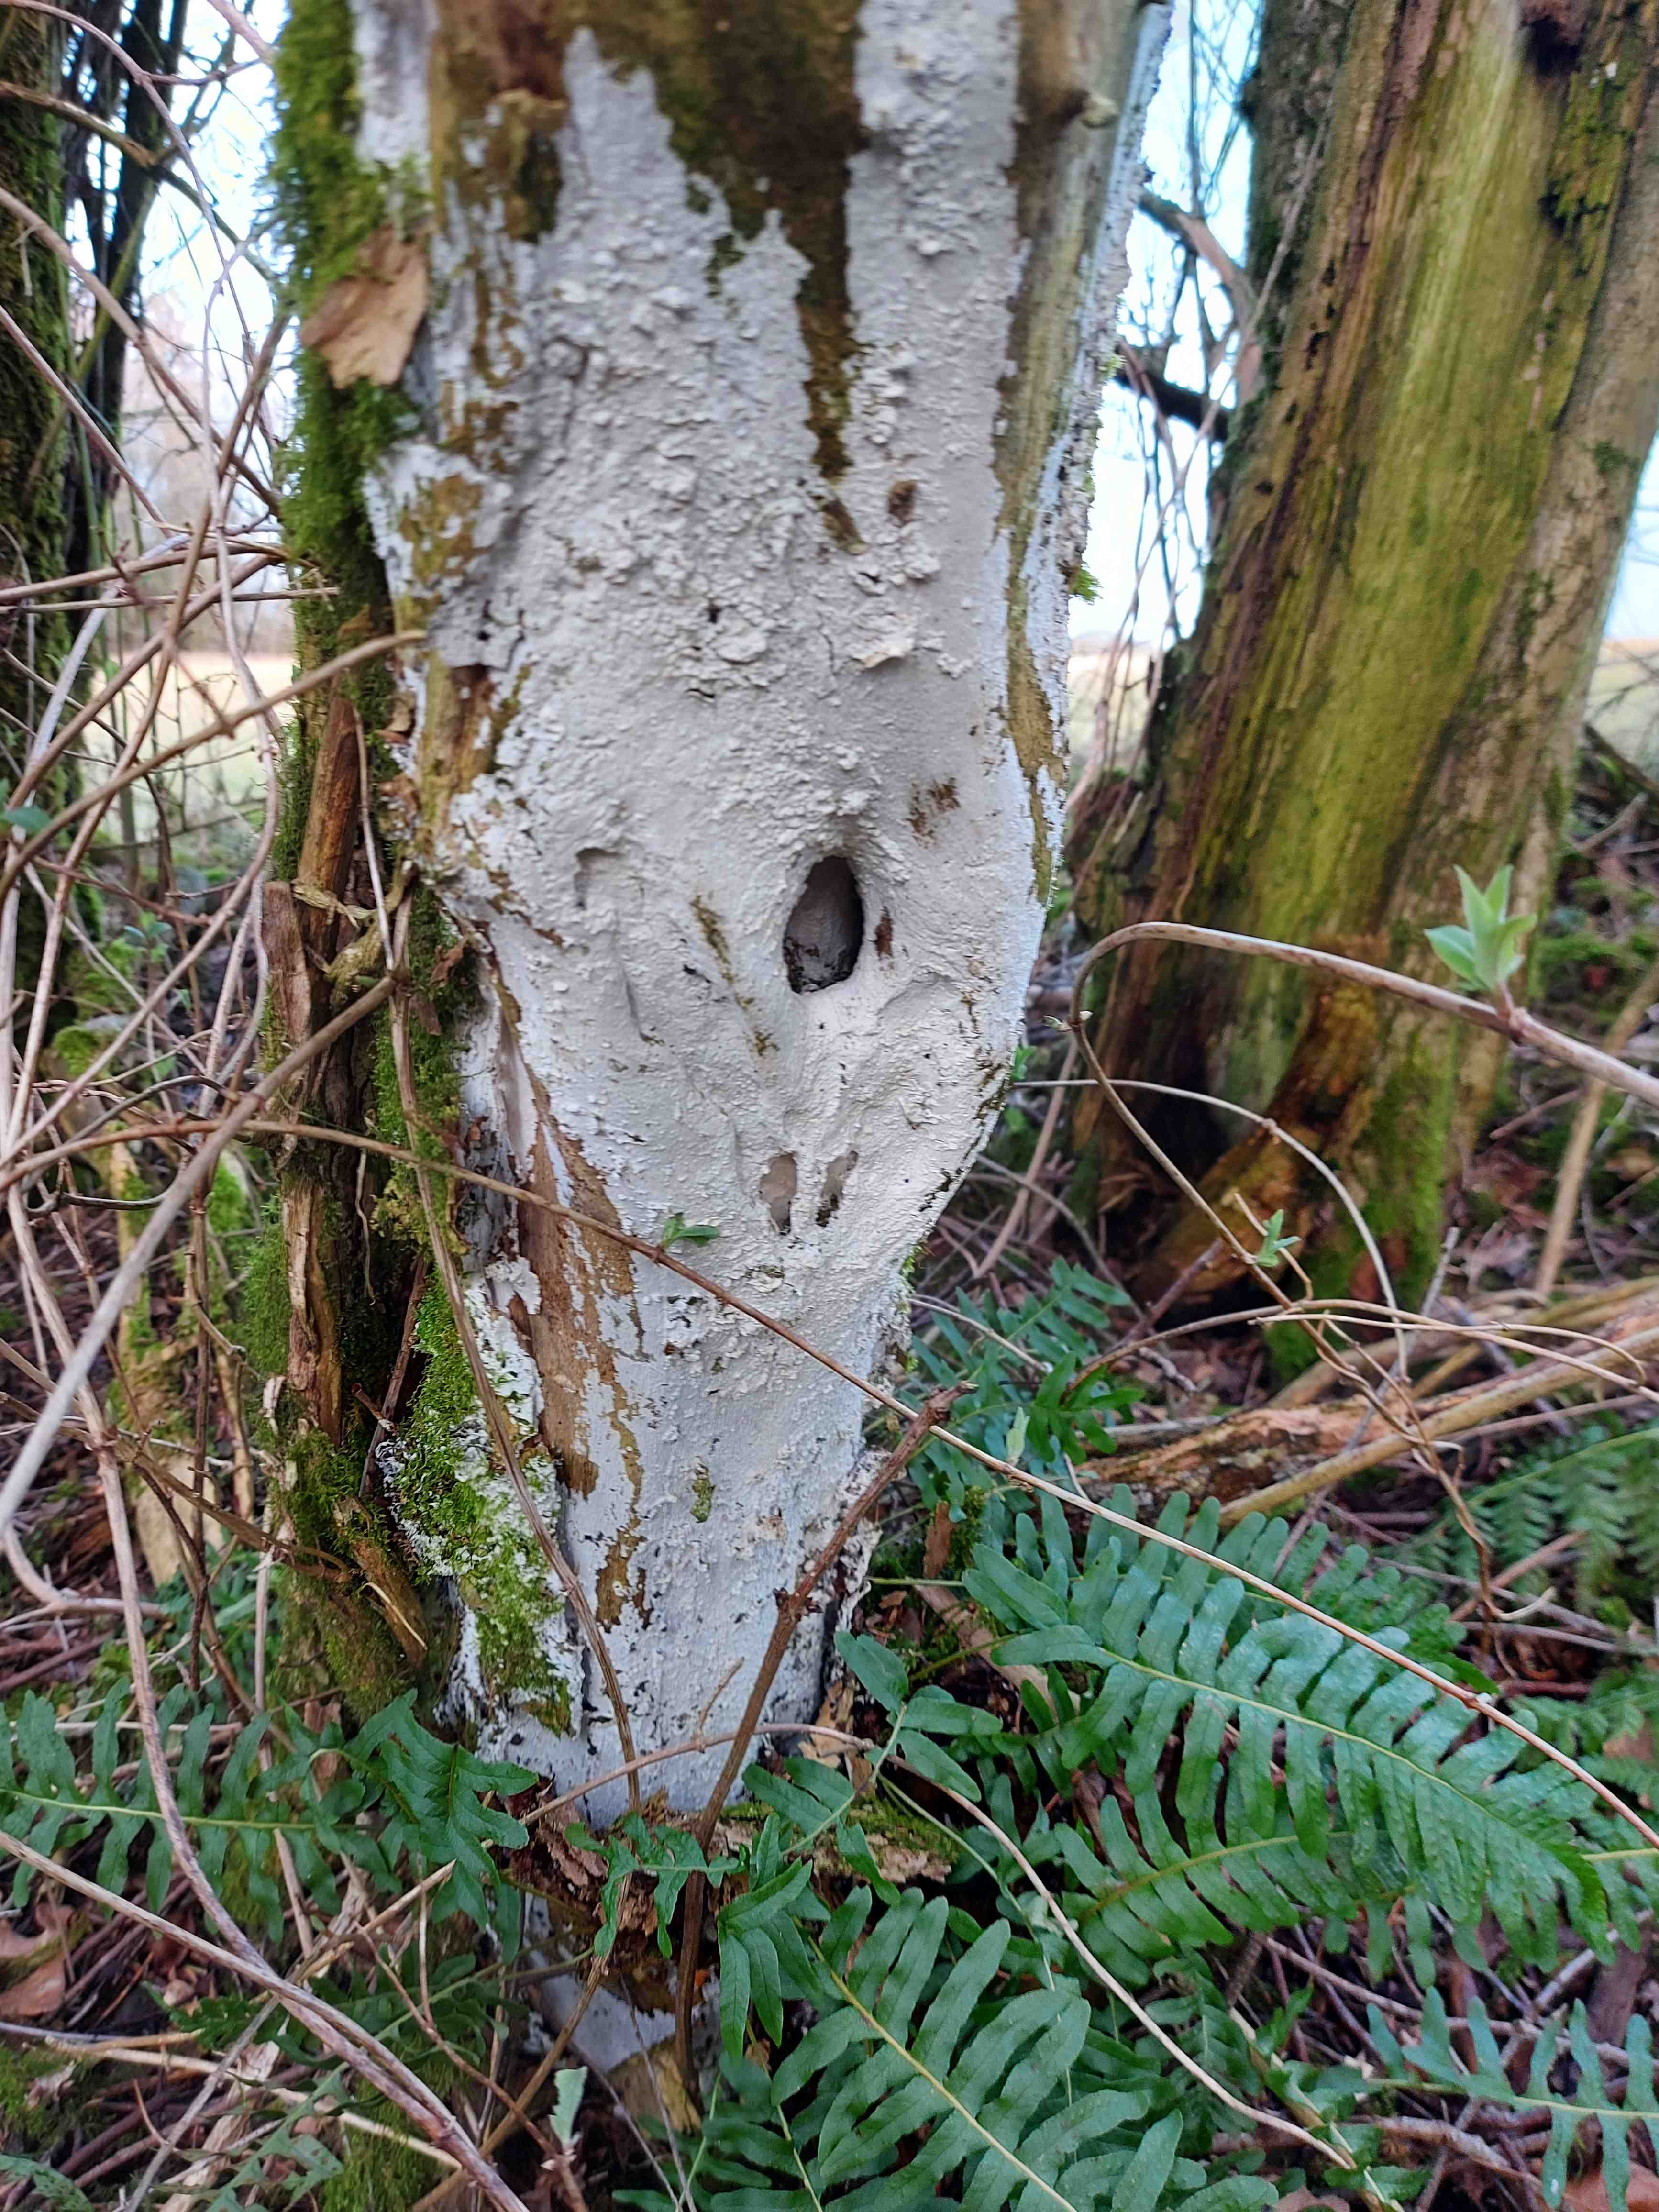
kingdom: Fungi
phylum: Basidiomycota
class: Agaricomycetes
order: Corticiales
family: Corticiaceae
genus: Lyomyces
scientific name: Lyomyces sambuci
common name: almindelig hyldehinde
